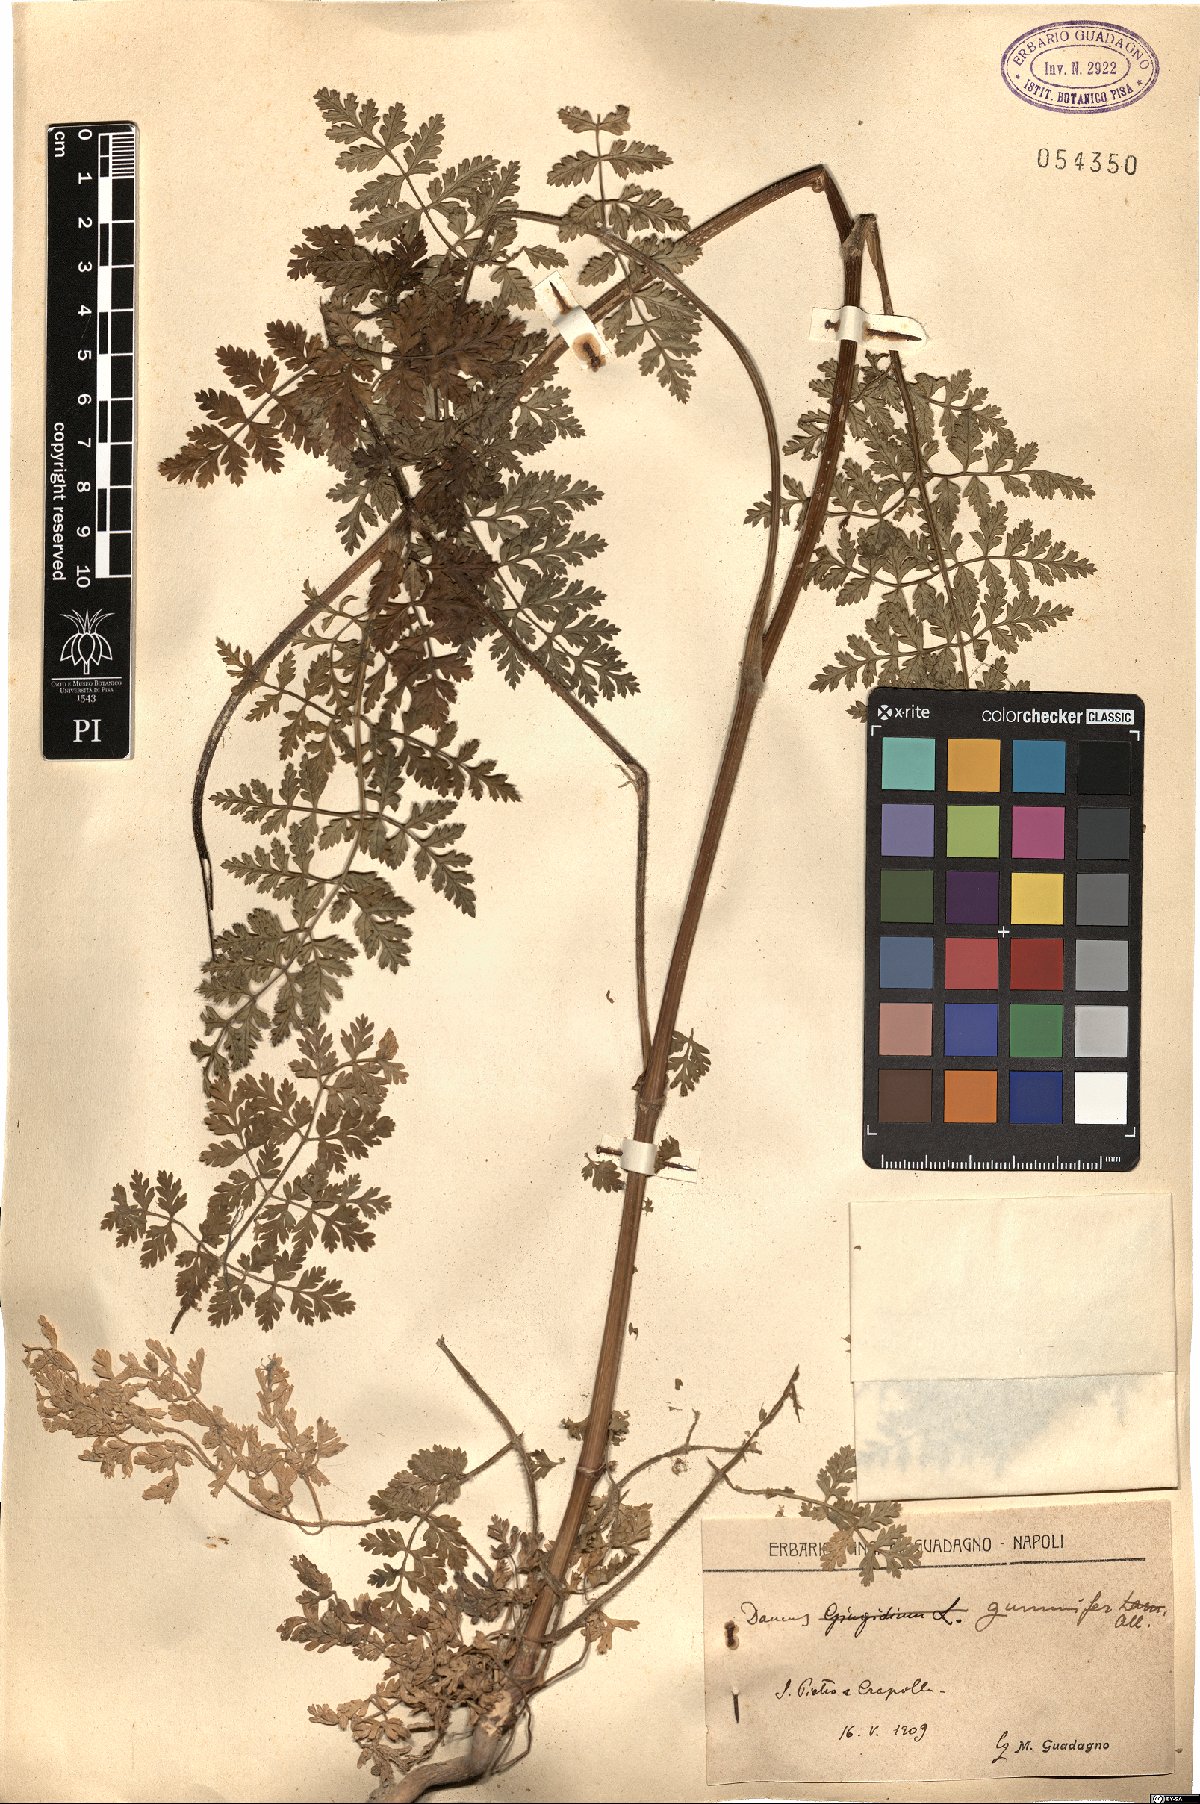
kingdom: Plantae
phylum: Tracheophyta
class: Magnoliopsida
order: Apiales
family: Apiaceae
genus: Daucus
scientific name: Daucus carota
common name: Wild carrot
